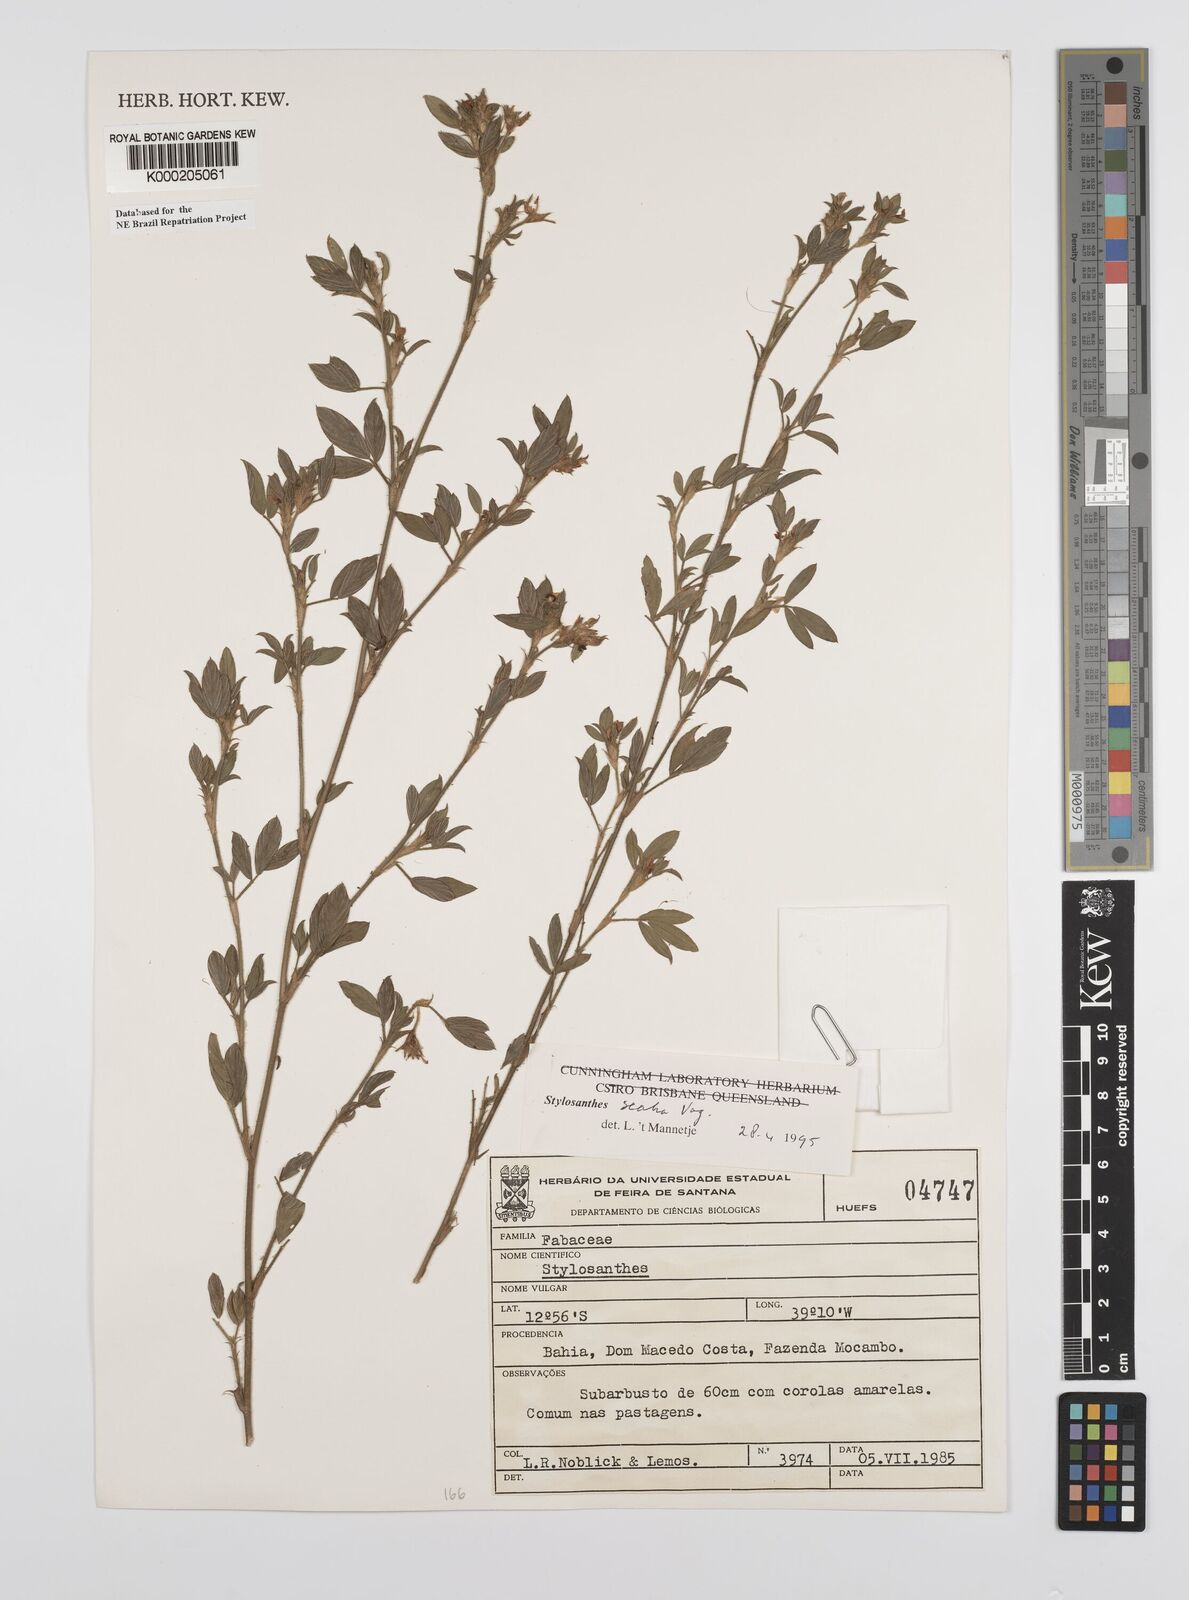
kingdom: Plantae
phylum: Tracheophyta
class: Magnoliopsida
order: Fabales
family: Fabaceae
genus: Stylosanthes
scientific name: Stylosanthes scabra
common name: Pencilflower
